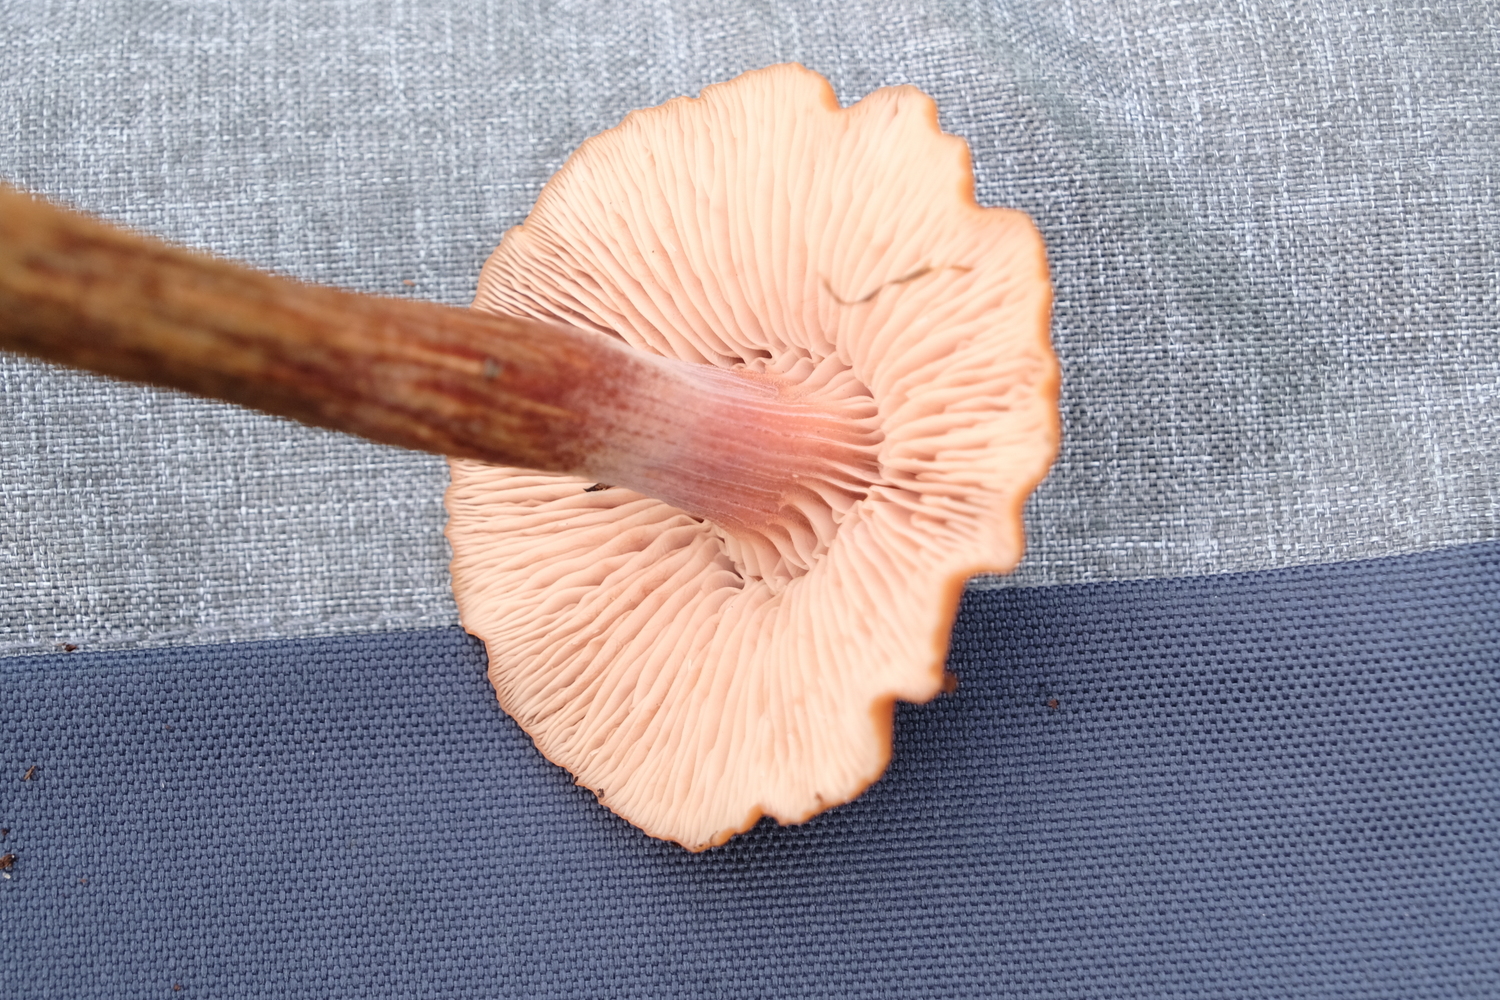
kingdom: Fungi
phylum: Basidiomycota
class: Agaricomycetes
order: Agaricales
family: Hydnangiaceae
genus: Laccaria
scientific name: Laccaria proxima
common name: stor ametysthat
